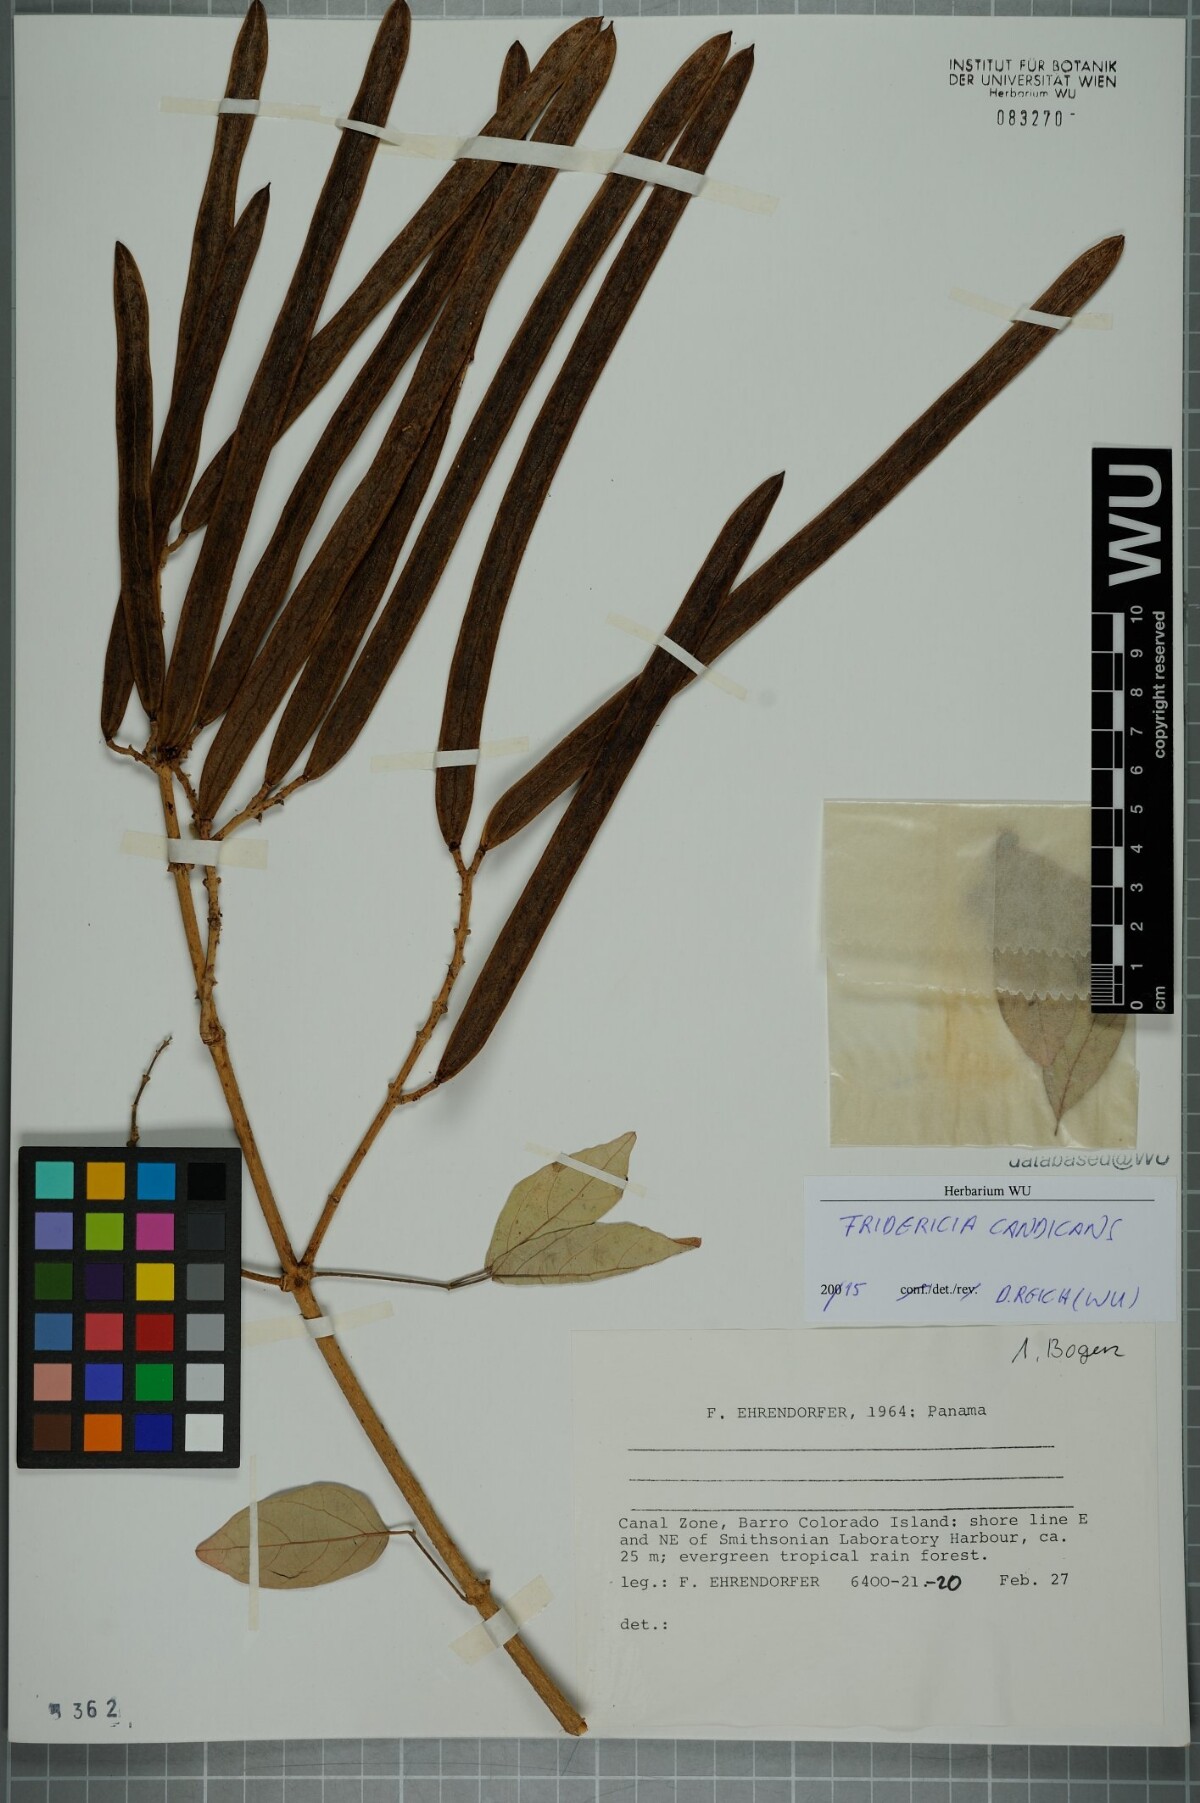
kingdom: Plantae
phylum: Tracheophyta
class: Magnoliopsida
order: Lamiales
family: Bignoniaceae
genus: Fridericia
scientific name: Fridericia candicans
